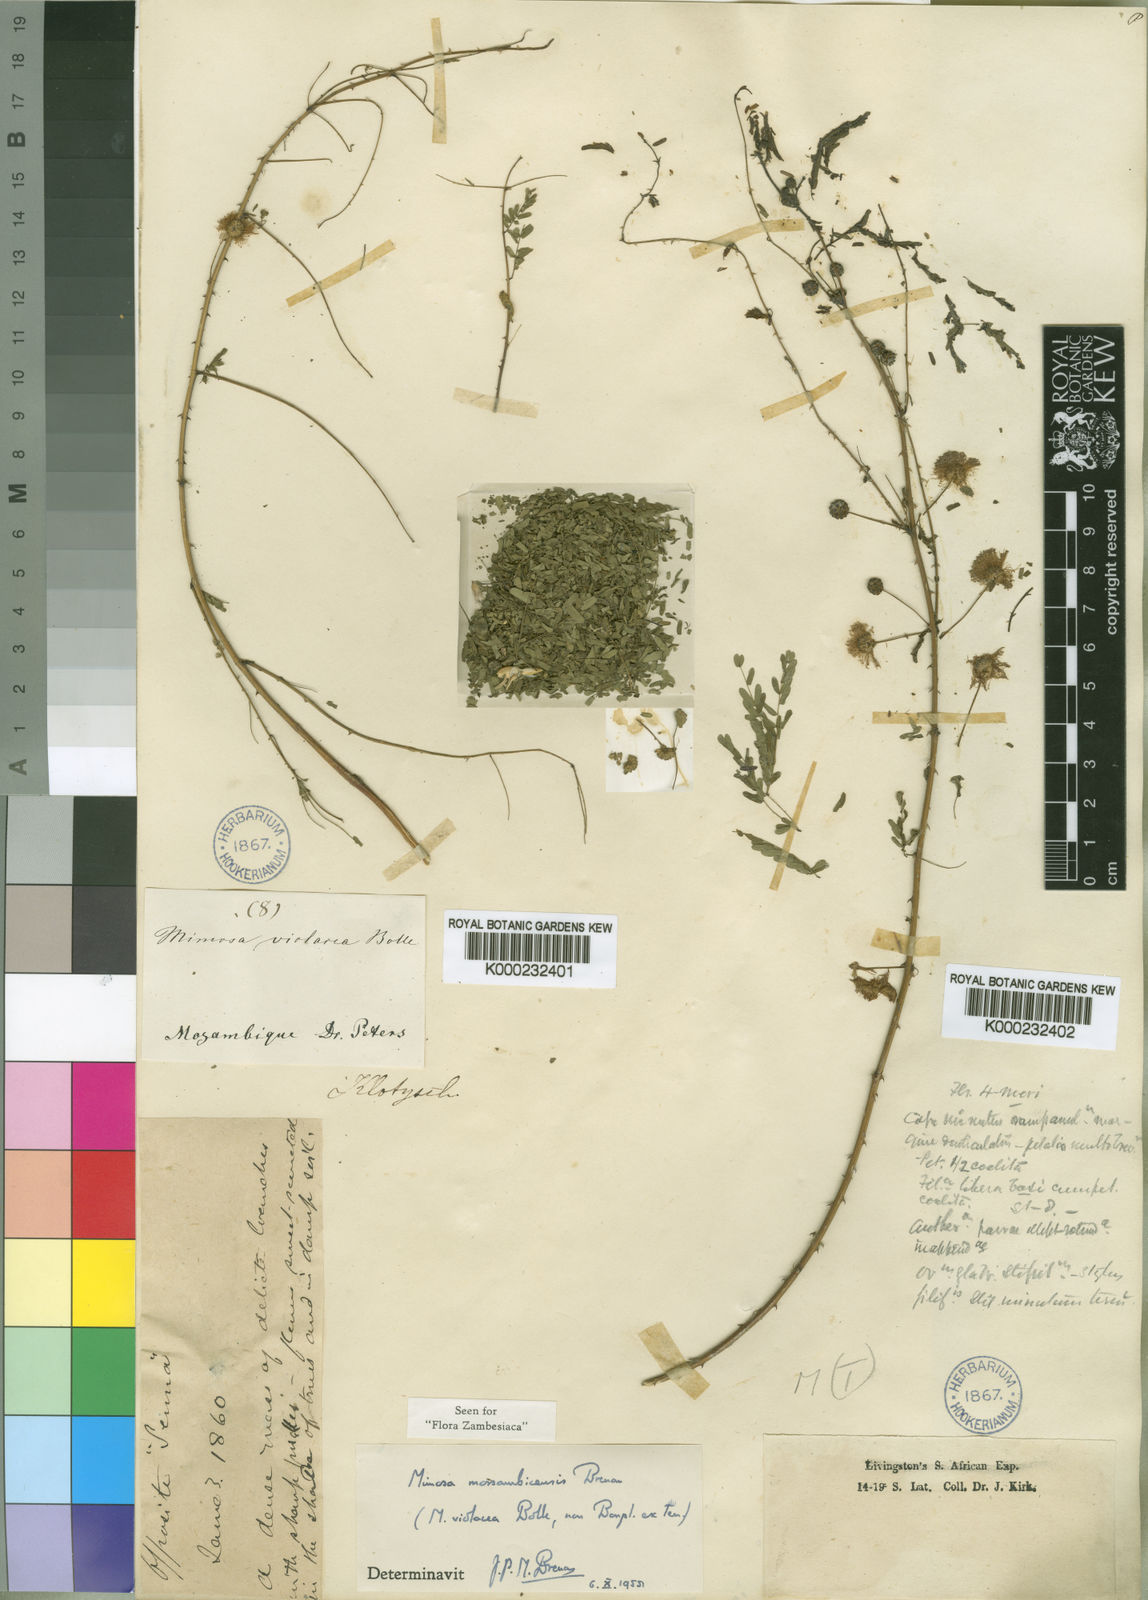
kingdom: Plantae
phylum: Tracheophyta
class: Magnoliopsida
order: Fabales
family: Fabaceae
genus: Mimosa
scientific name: Mimosa
